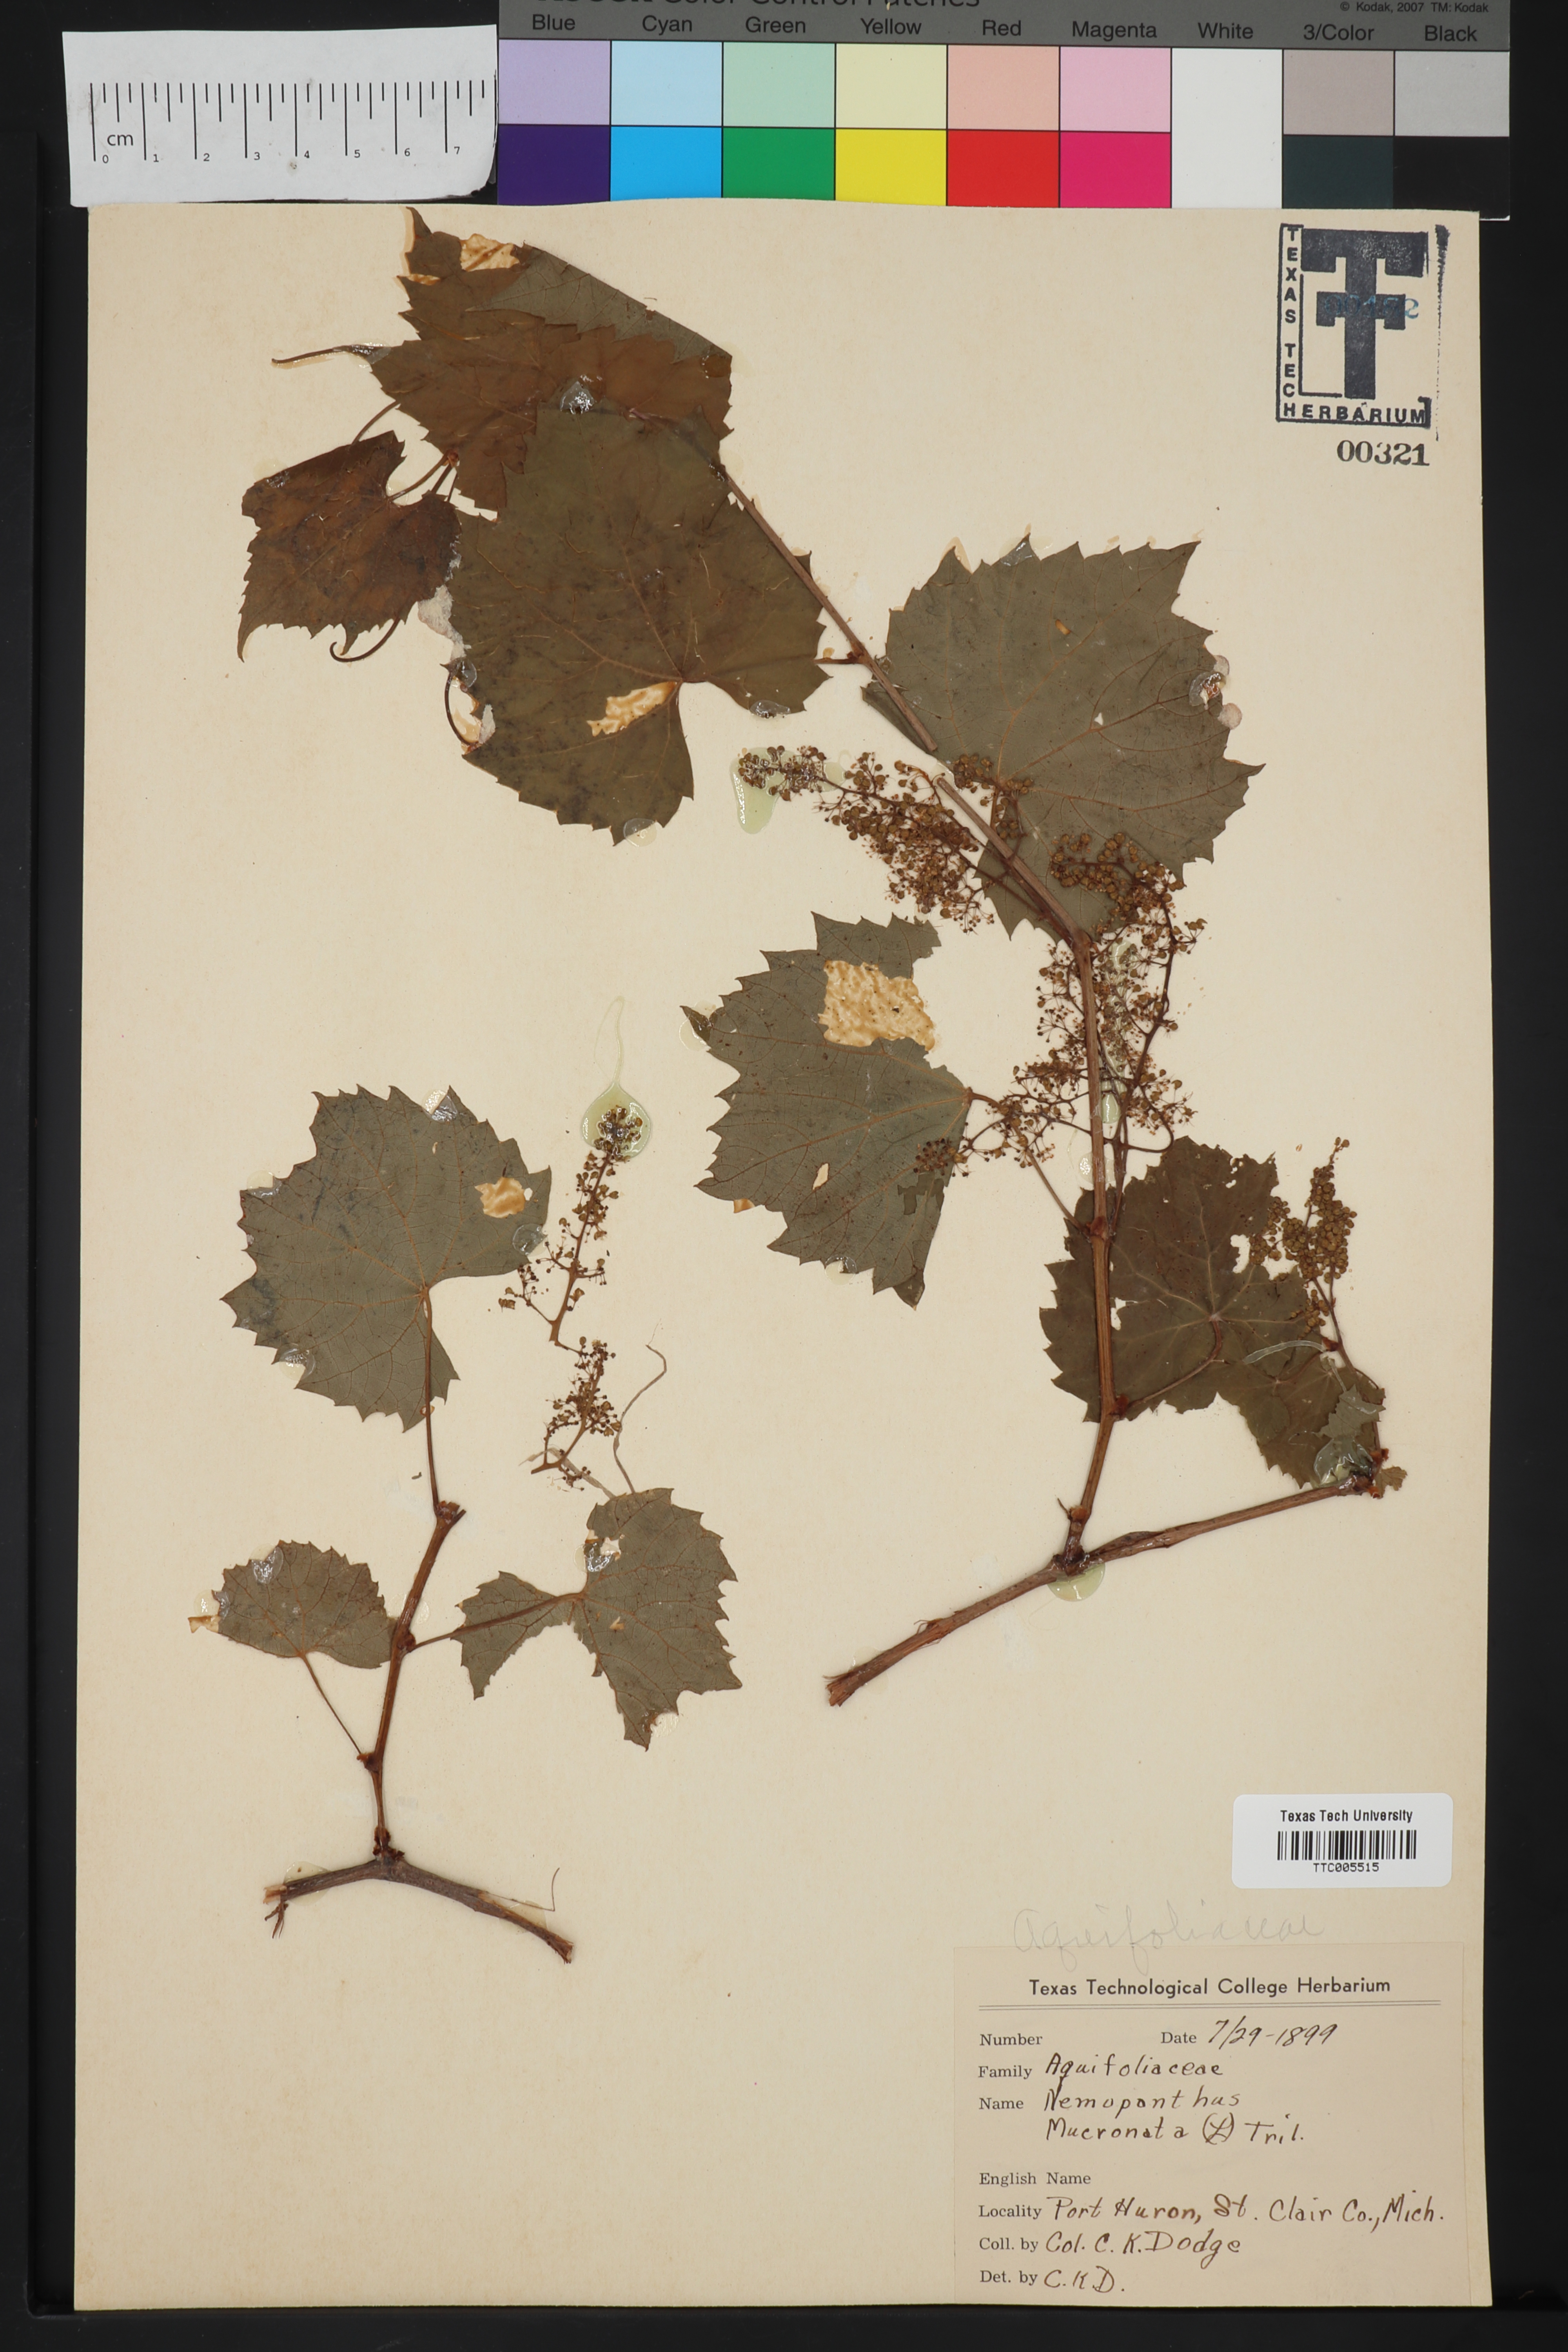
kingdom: Plantae
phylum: Tracheophyta
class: Magnoliopsida
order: Aquifoliales
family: Aquifoliaceae
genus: Ilex
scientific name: Ilex mucronata
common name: Catberry
